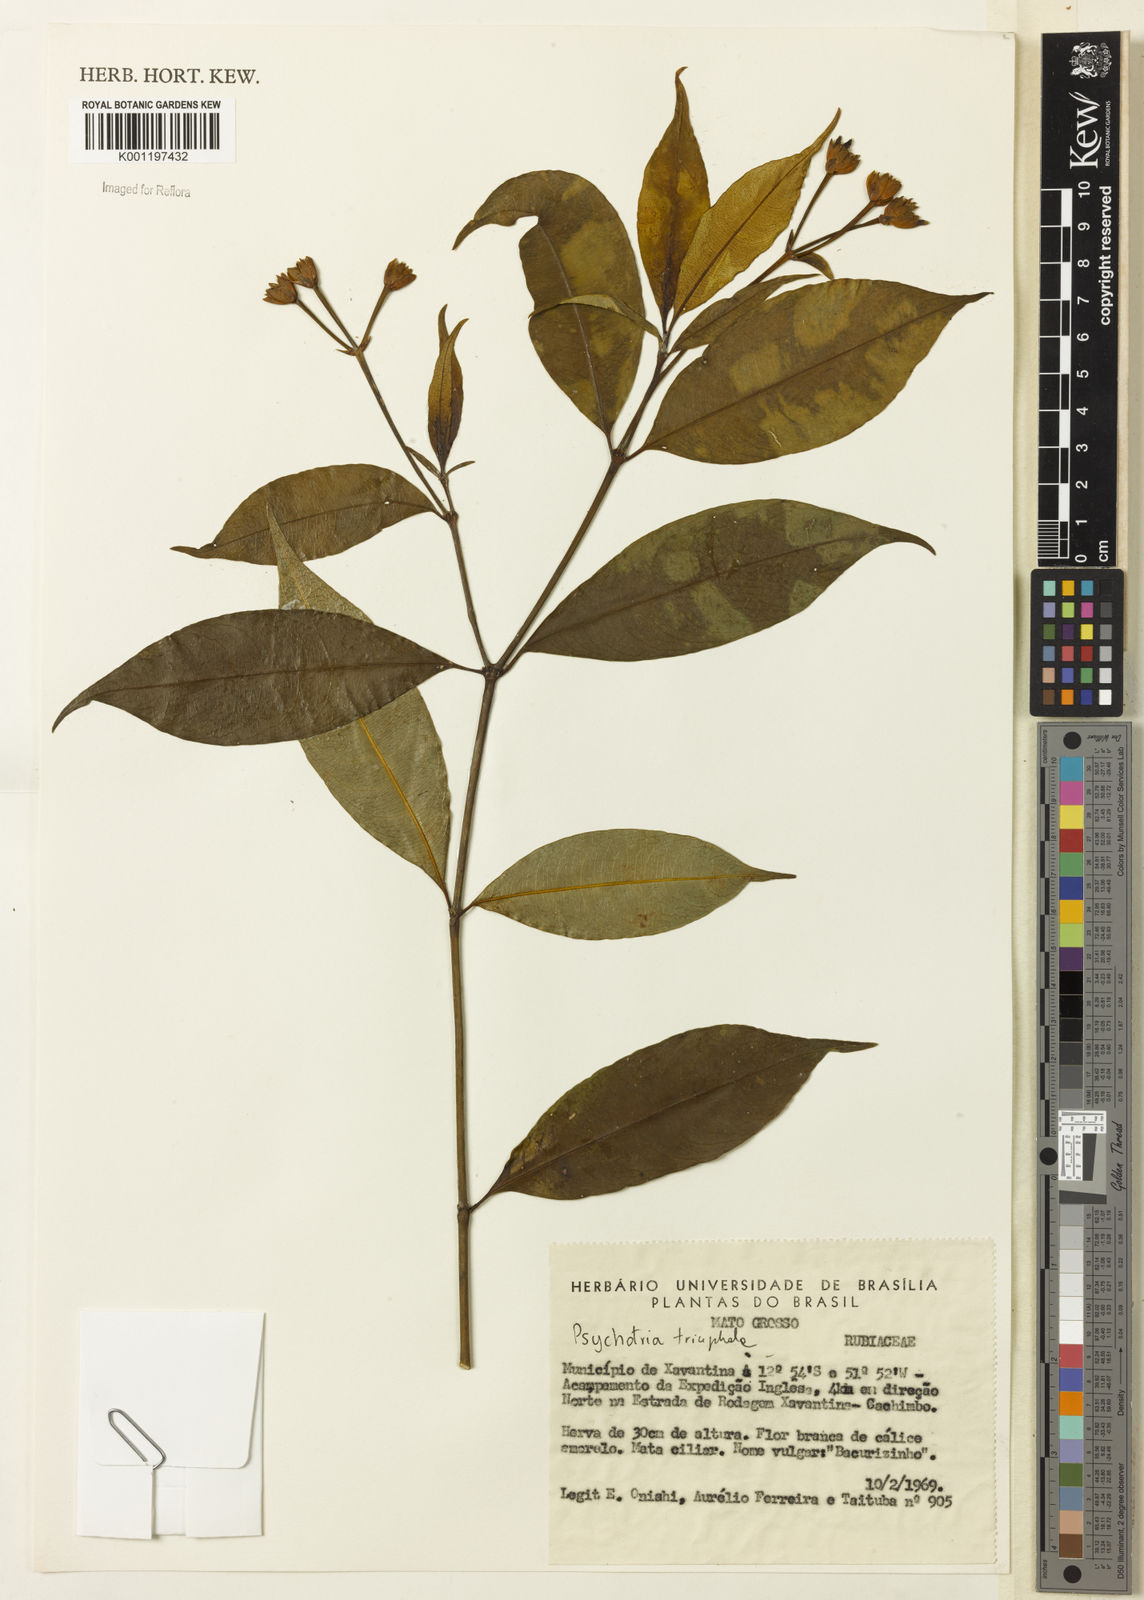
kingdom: Plantae
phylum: Tracheophyta
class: Magnoliopsida
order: Gentianales
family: Rubiaceae
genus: Psychotria
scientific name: Psychotria
